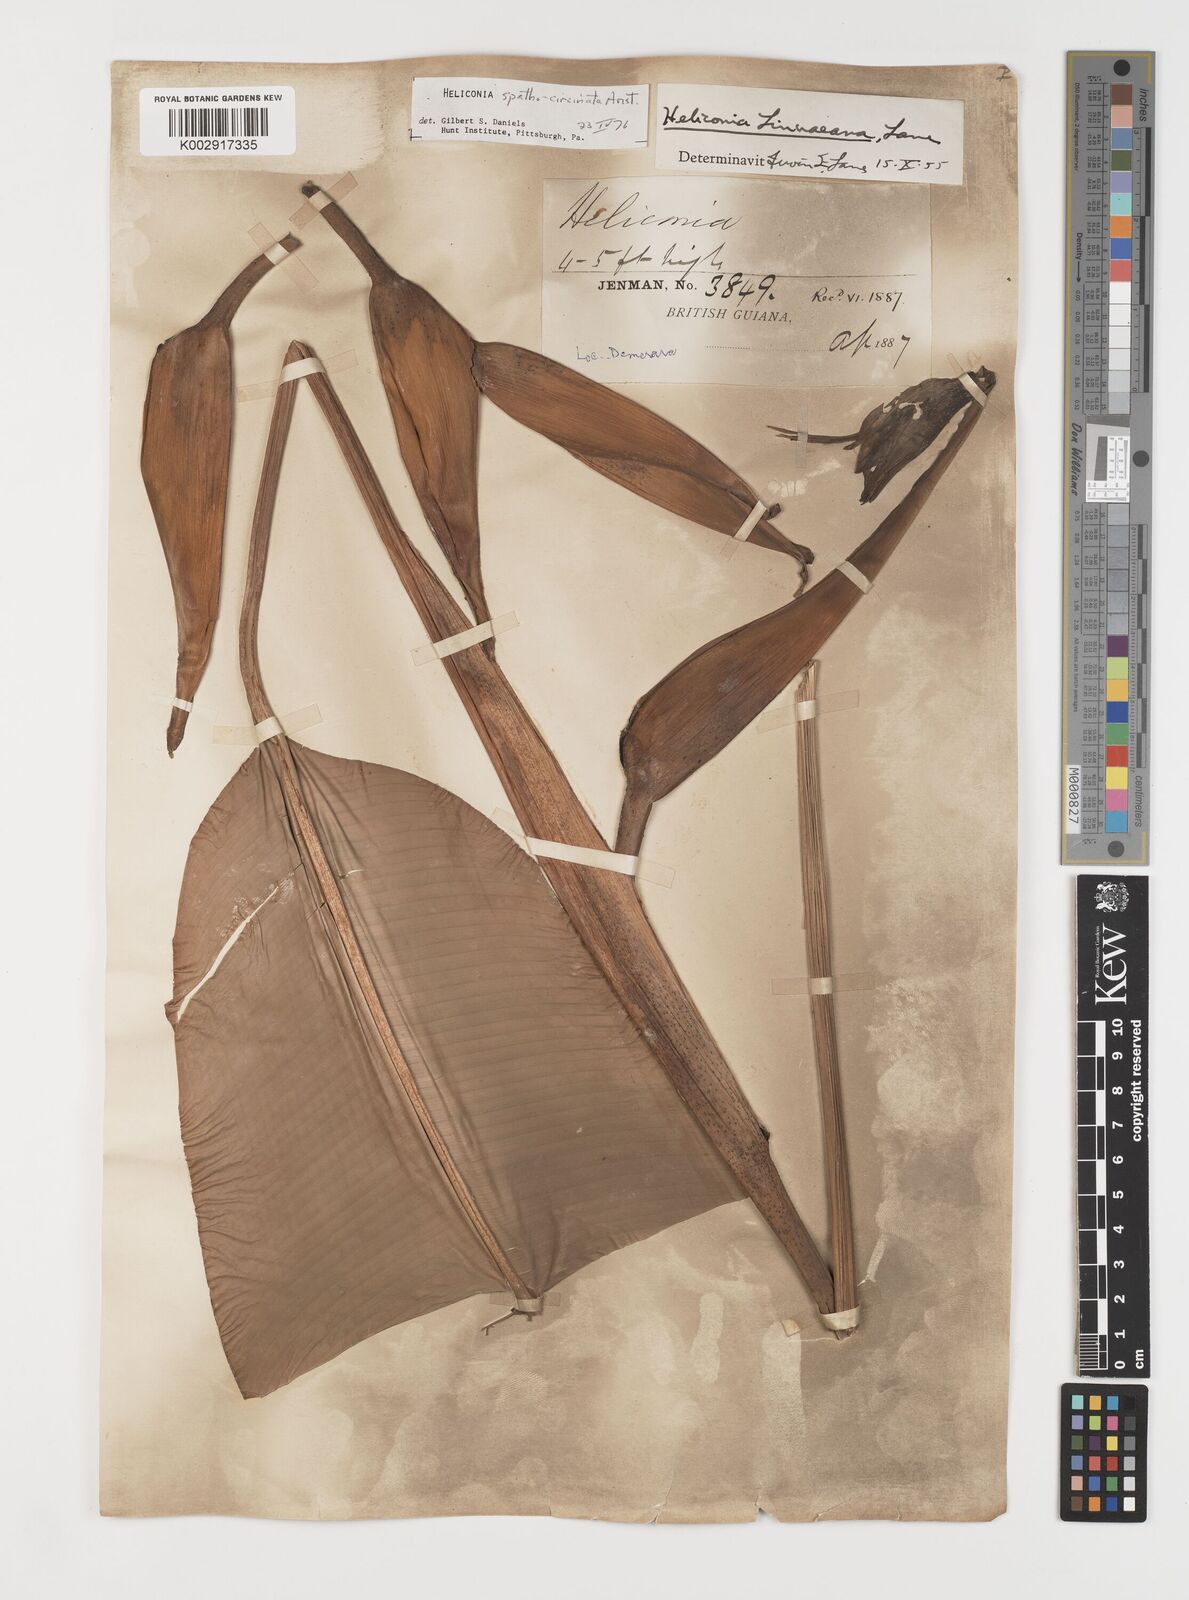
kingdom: Plantae
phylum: Tracheophyta
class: Liliopsida
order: Zingiberales
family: Heliconiaceae
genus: Heliconia
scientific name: Heliconia spathocircinata
